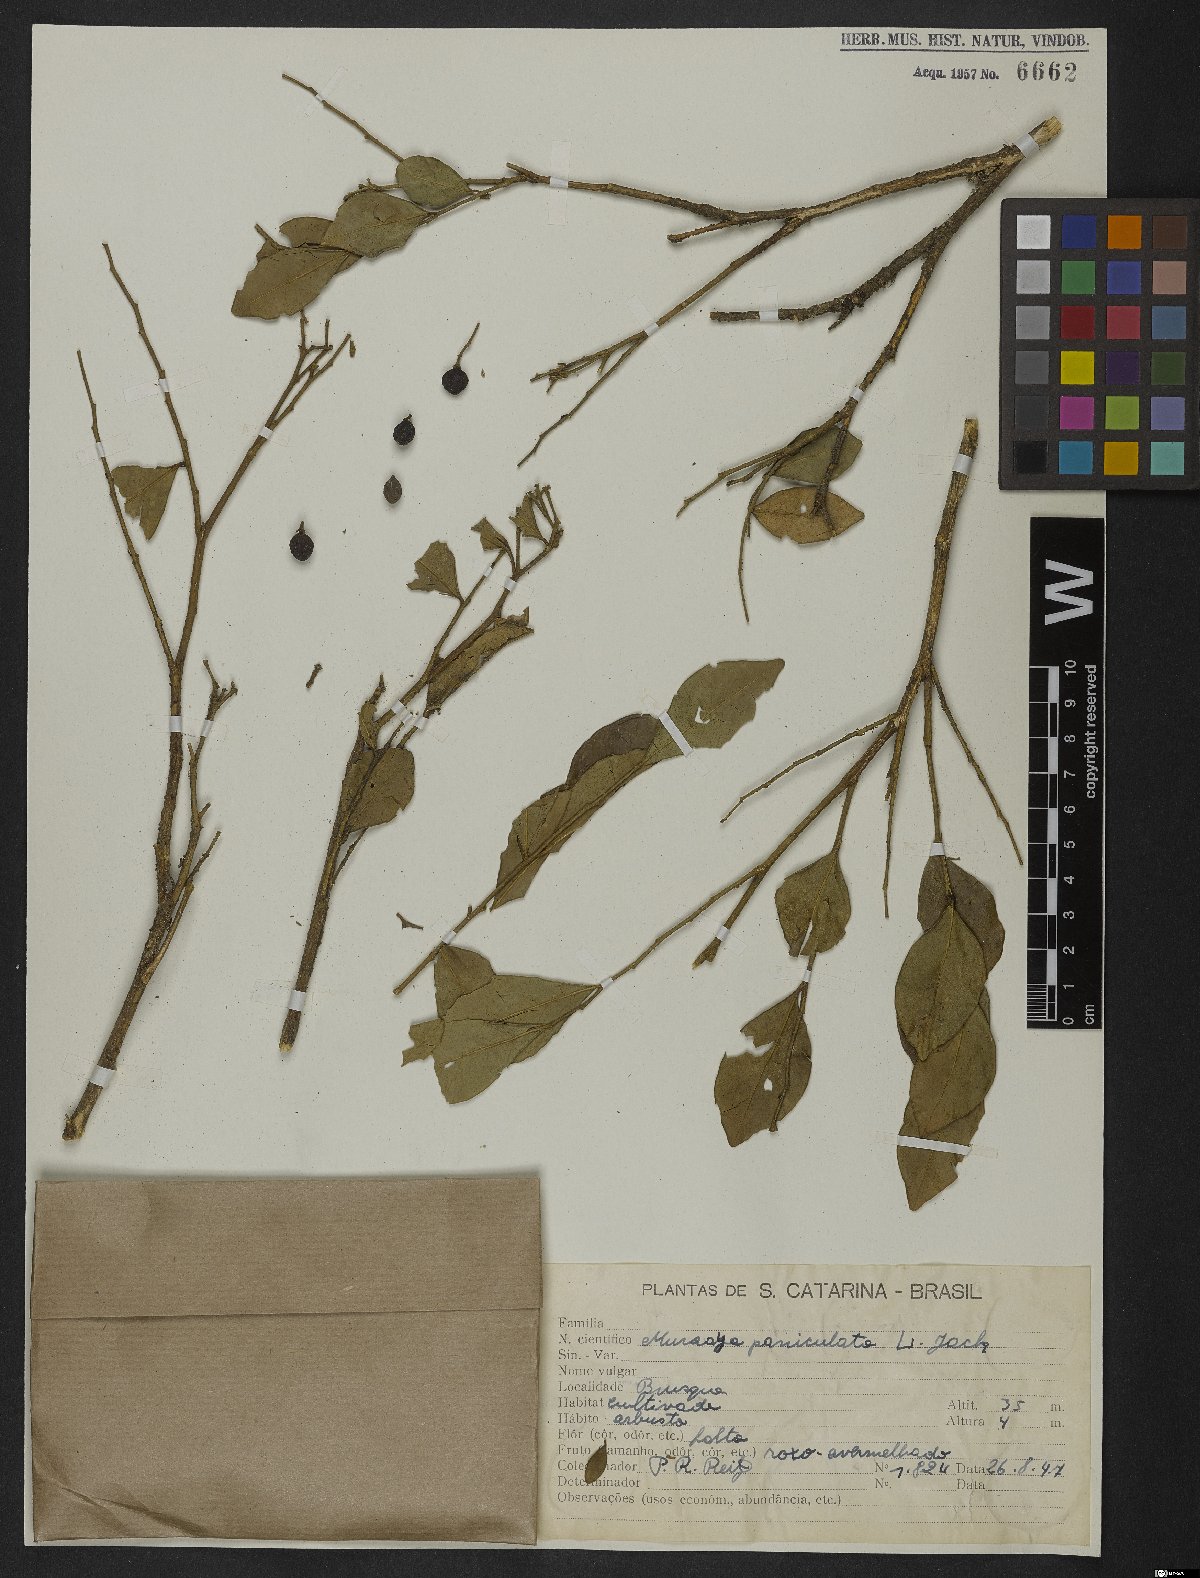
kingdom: Plantae
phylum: Tracheophyta
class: Magnoliopsida
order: Sapindales
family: Rutaceae
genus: Murraya
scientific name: Murraya paniculata
